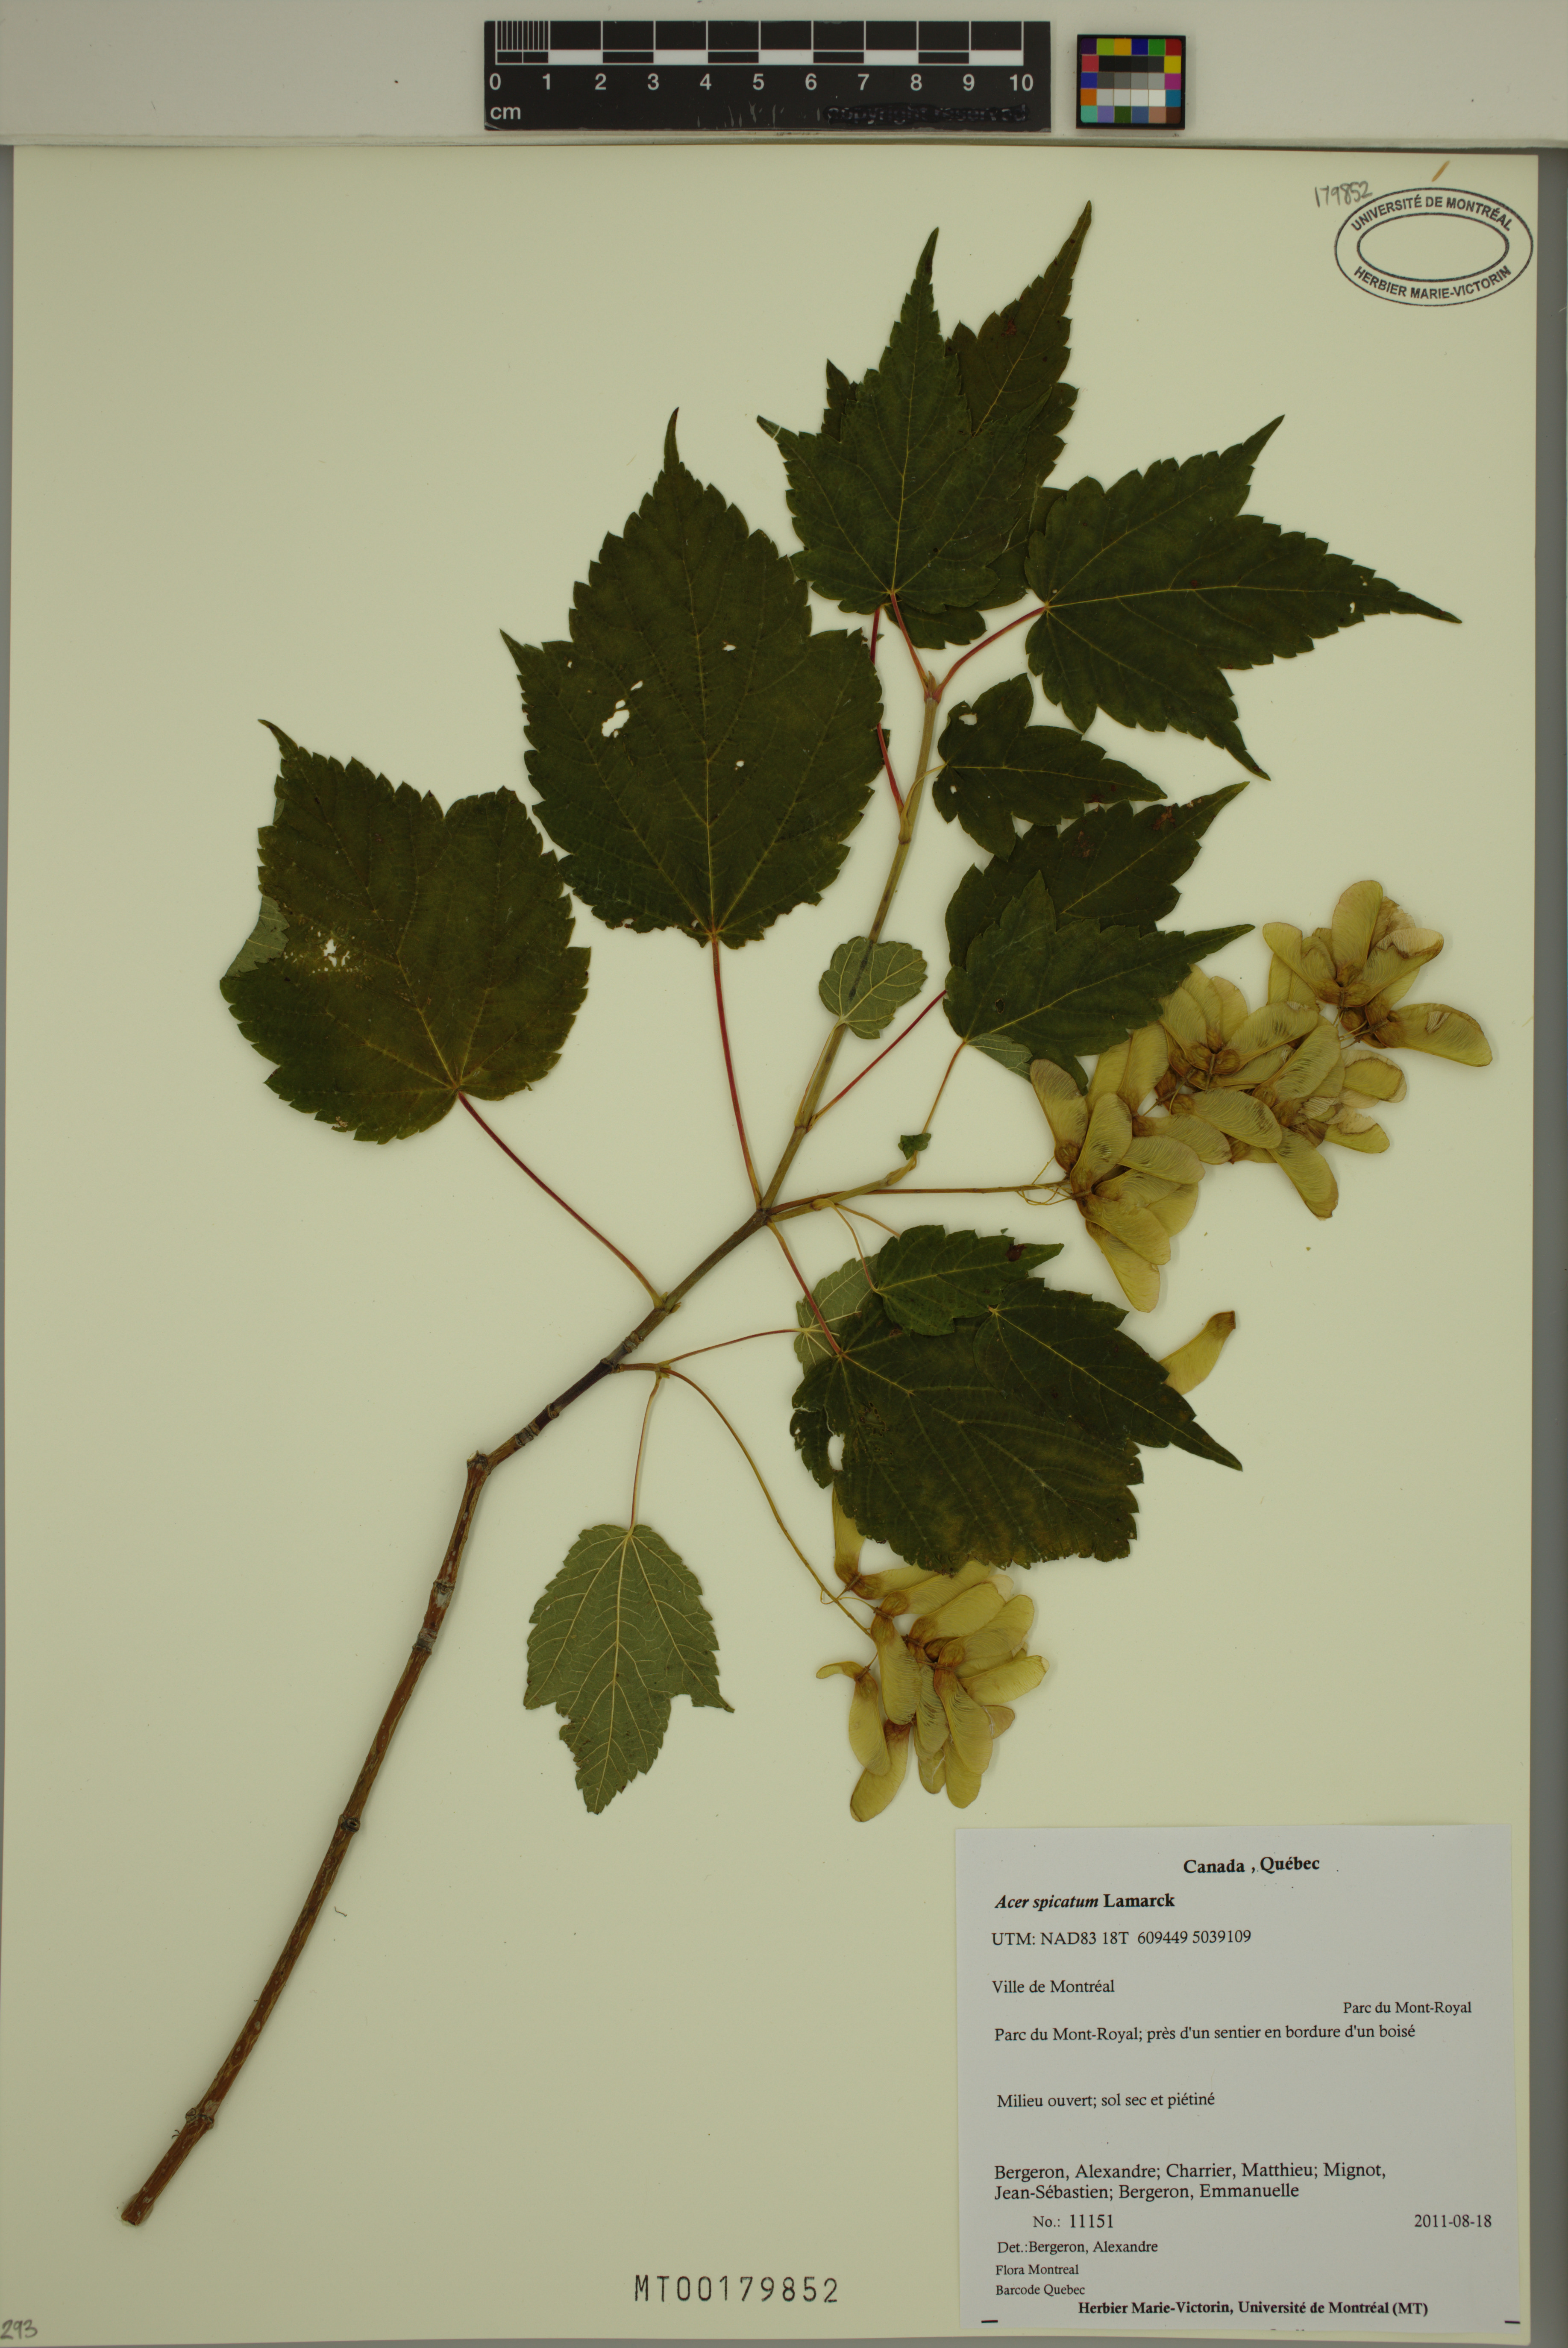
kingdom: Plantae
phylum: Tracheophyta
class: Magnoliopsida
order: Sapindales
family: Sapindaceae
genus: Acer
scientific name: Acer spicatum
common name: Mountain maple
